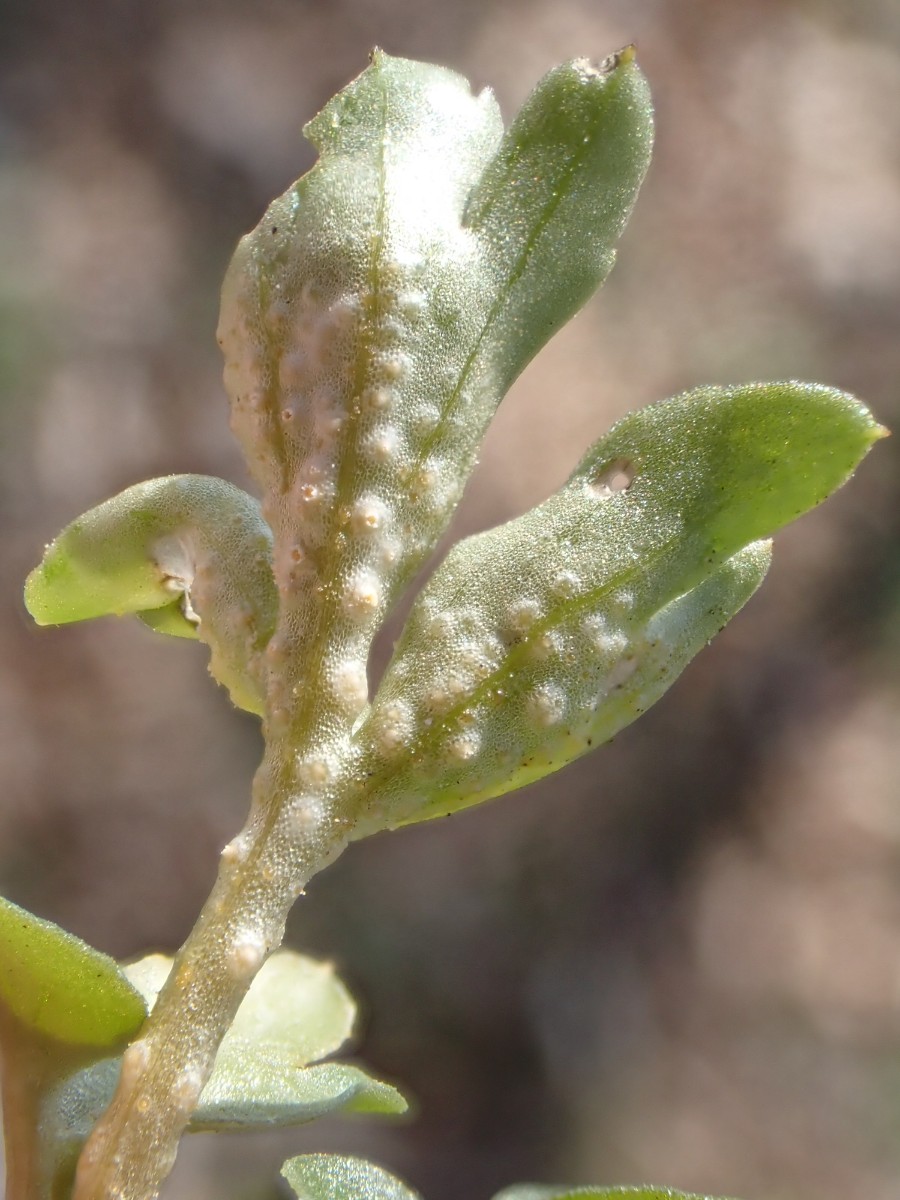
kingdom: Fungi
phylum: Basidiomycota
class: Pucciniomycetes
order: Pucciniales
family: Pucciniaceae
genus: Puccinia
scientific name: Puccinia
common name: tvecellerust
